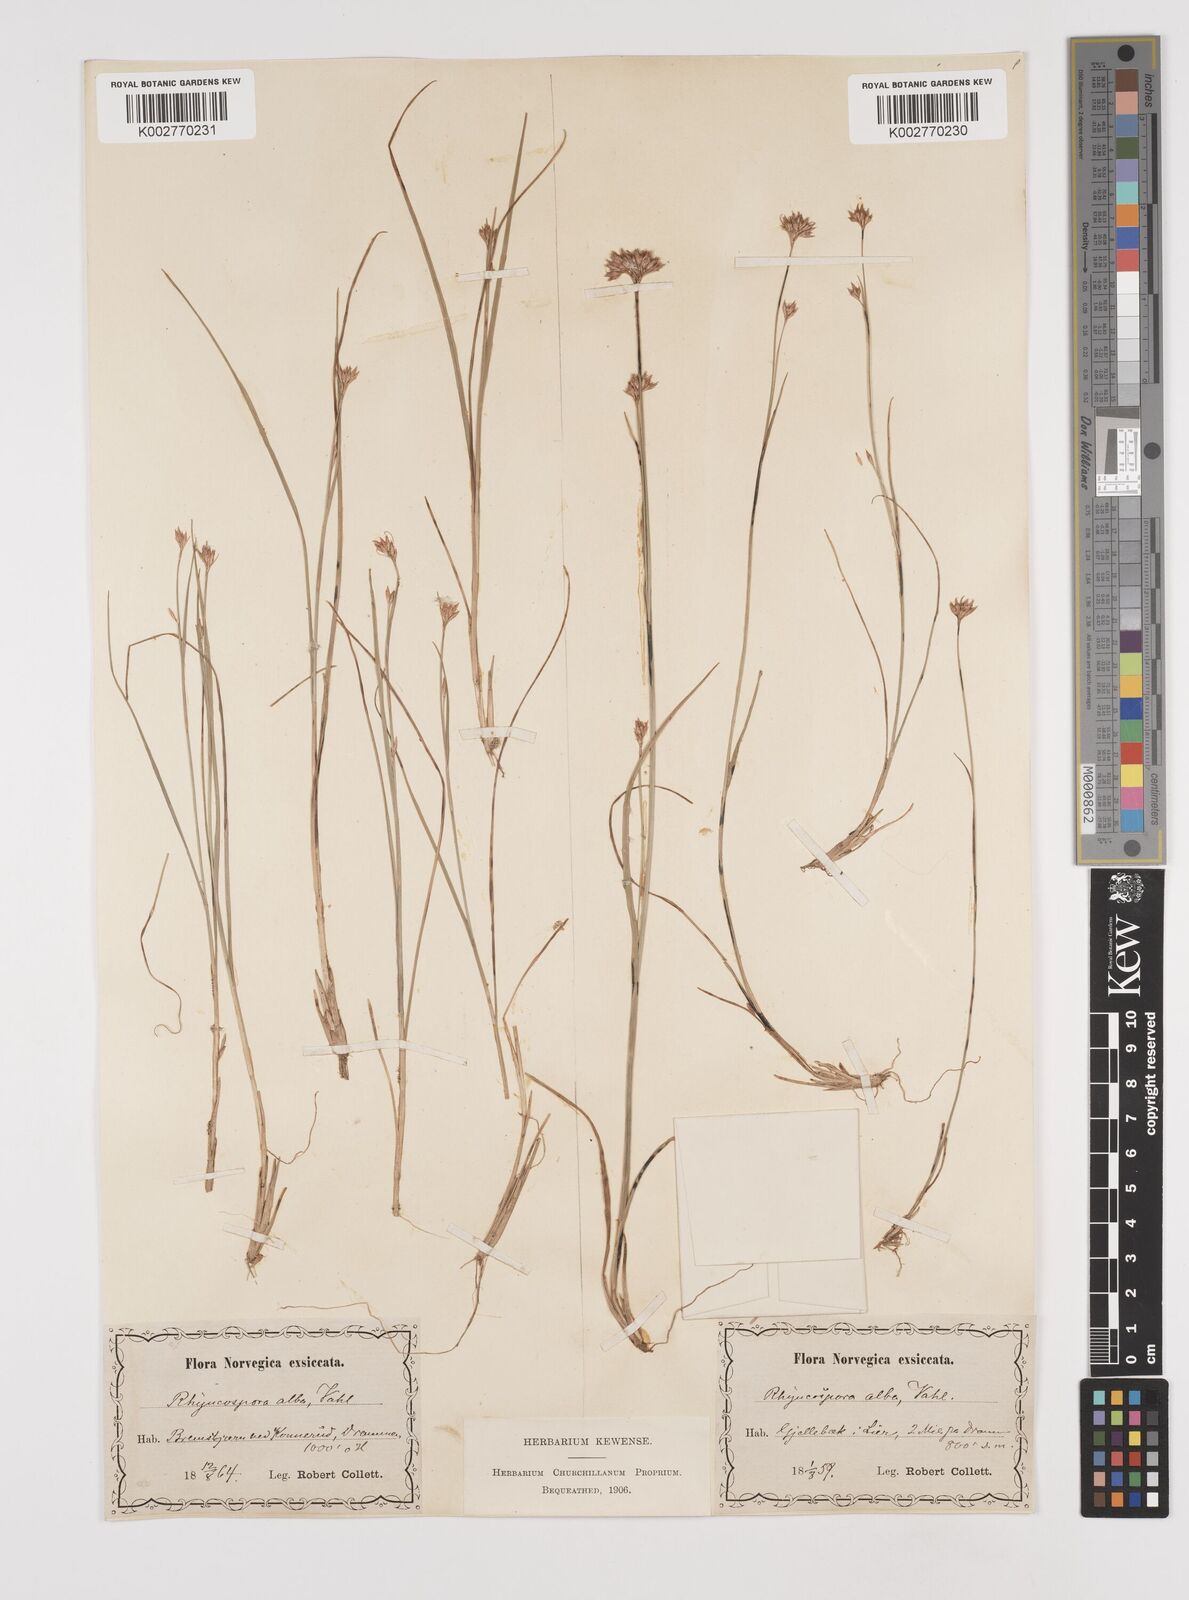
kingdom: Plantae
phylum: Tracheophyta
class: Liliopsida
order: Poales
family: Cyperaceae
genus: Rhynchospora
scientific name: Rhynchospora alba
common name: White beak-sedge
